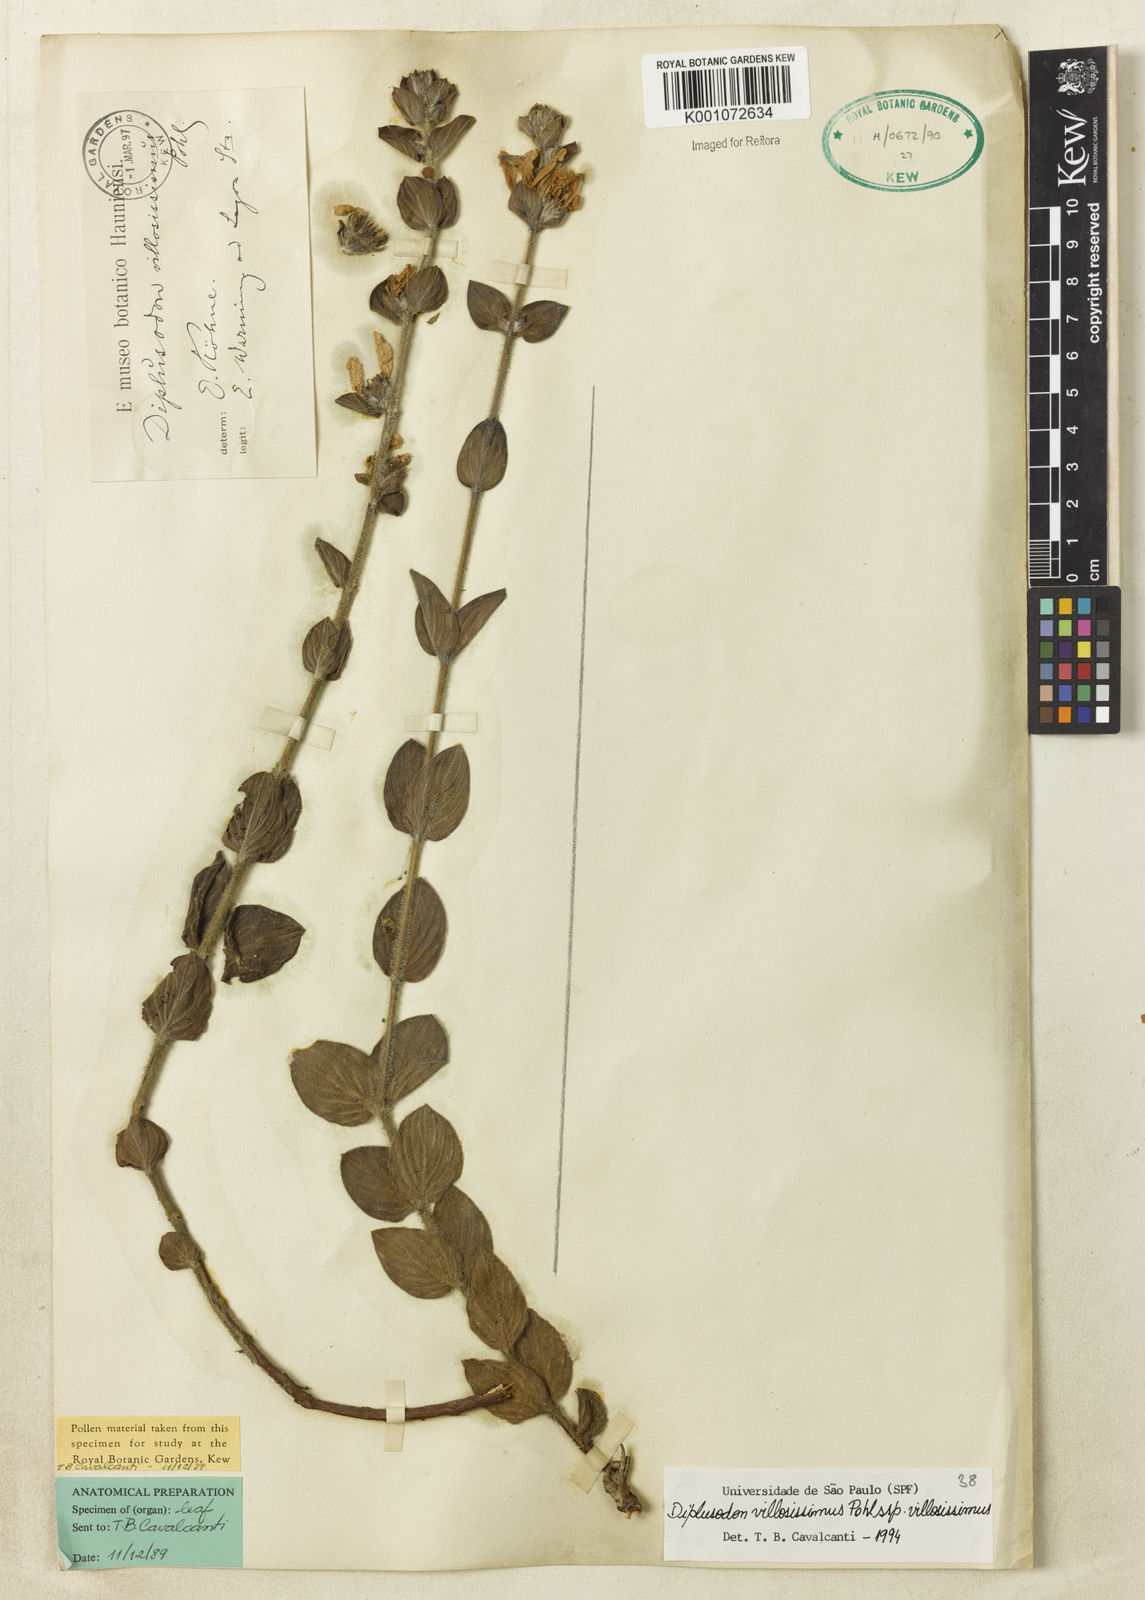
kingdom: Plantae
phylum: Tracheophyta
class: Magnoliopsida
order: Myrtales
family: Lythraceae
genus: Diplusodon
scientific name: Diplusodon villosissimus
